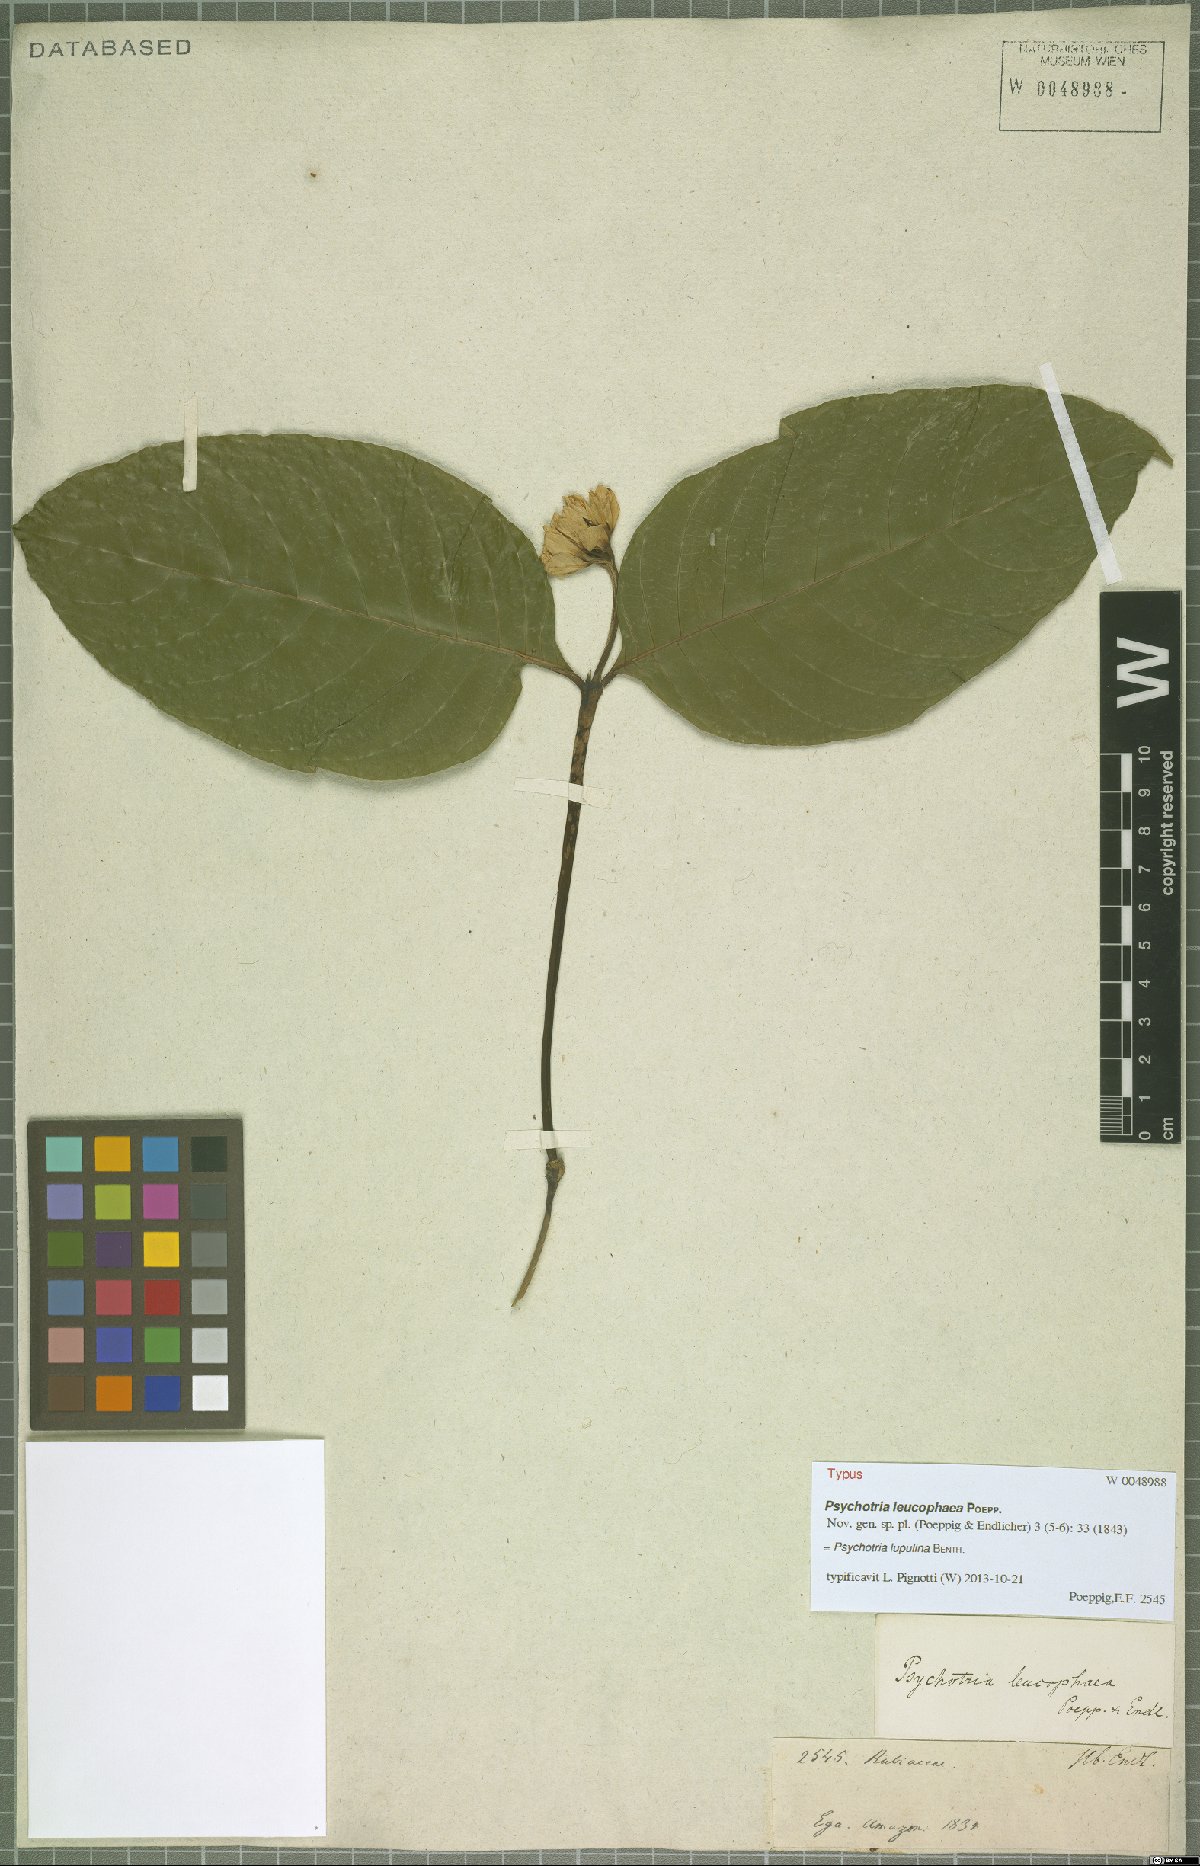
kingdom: Plantae
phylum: Tracheophyta
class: Magnoliopsida
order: Gentianales
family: Rubiaceae
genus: Palicourea
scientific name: Palicourea justiciifolia
